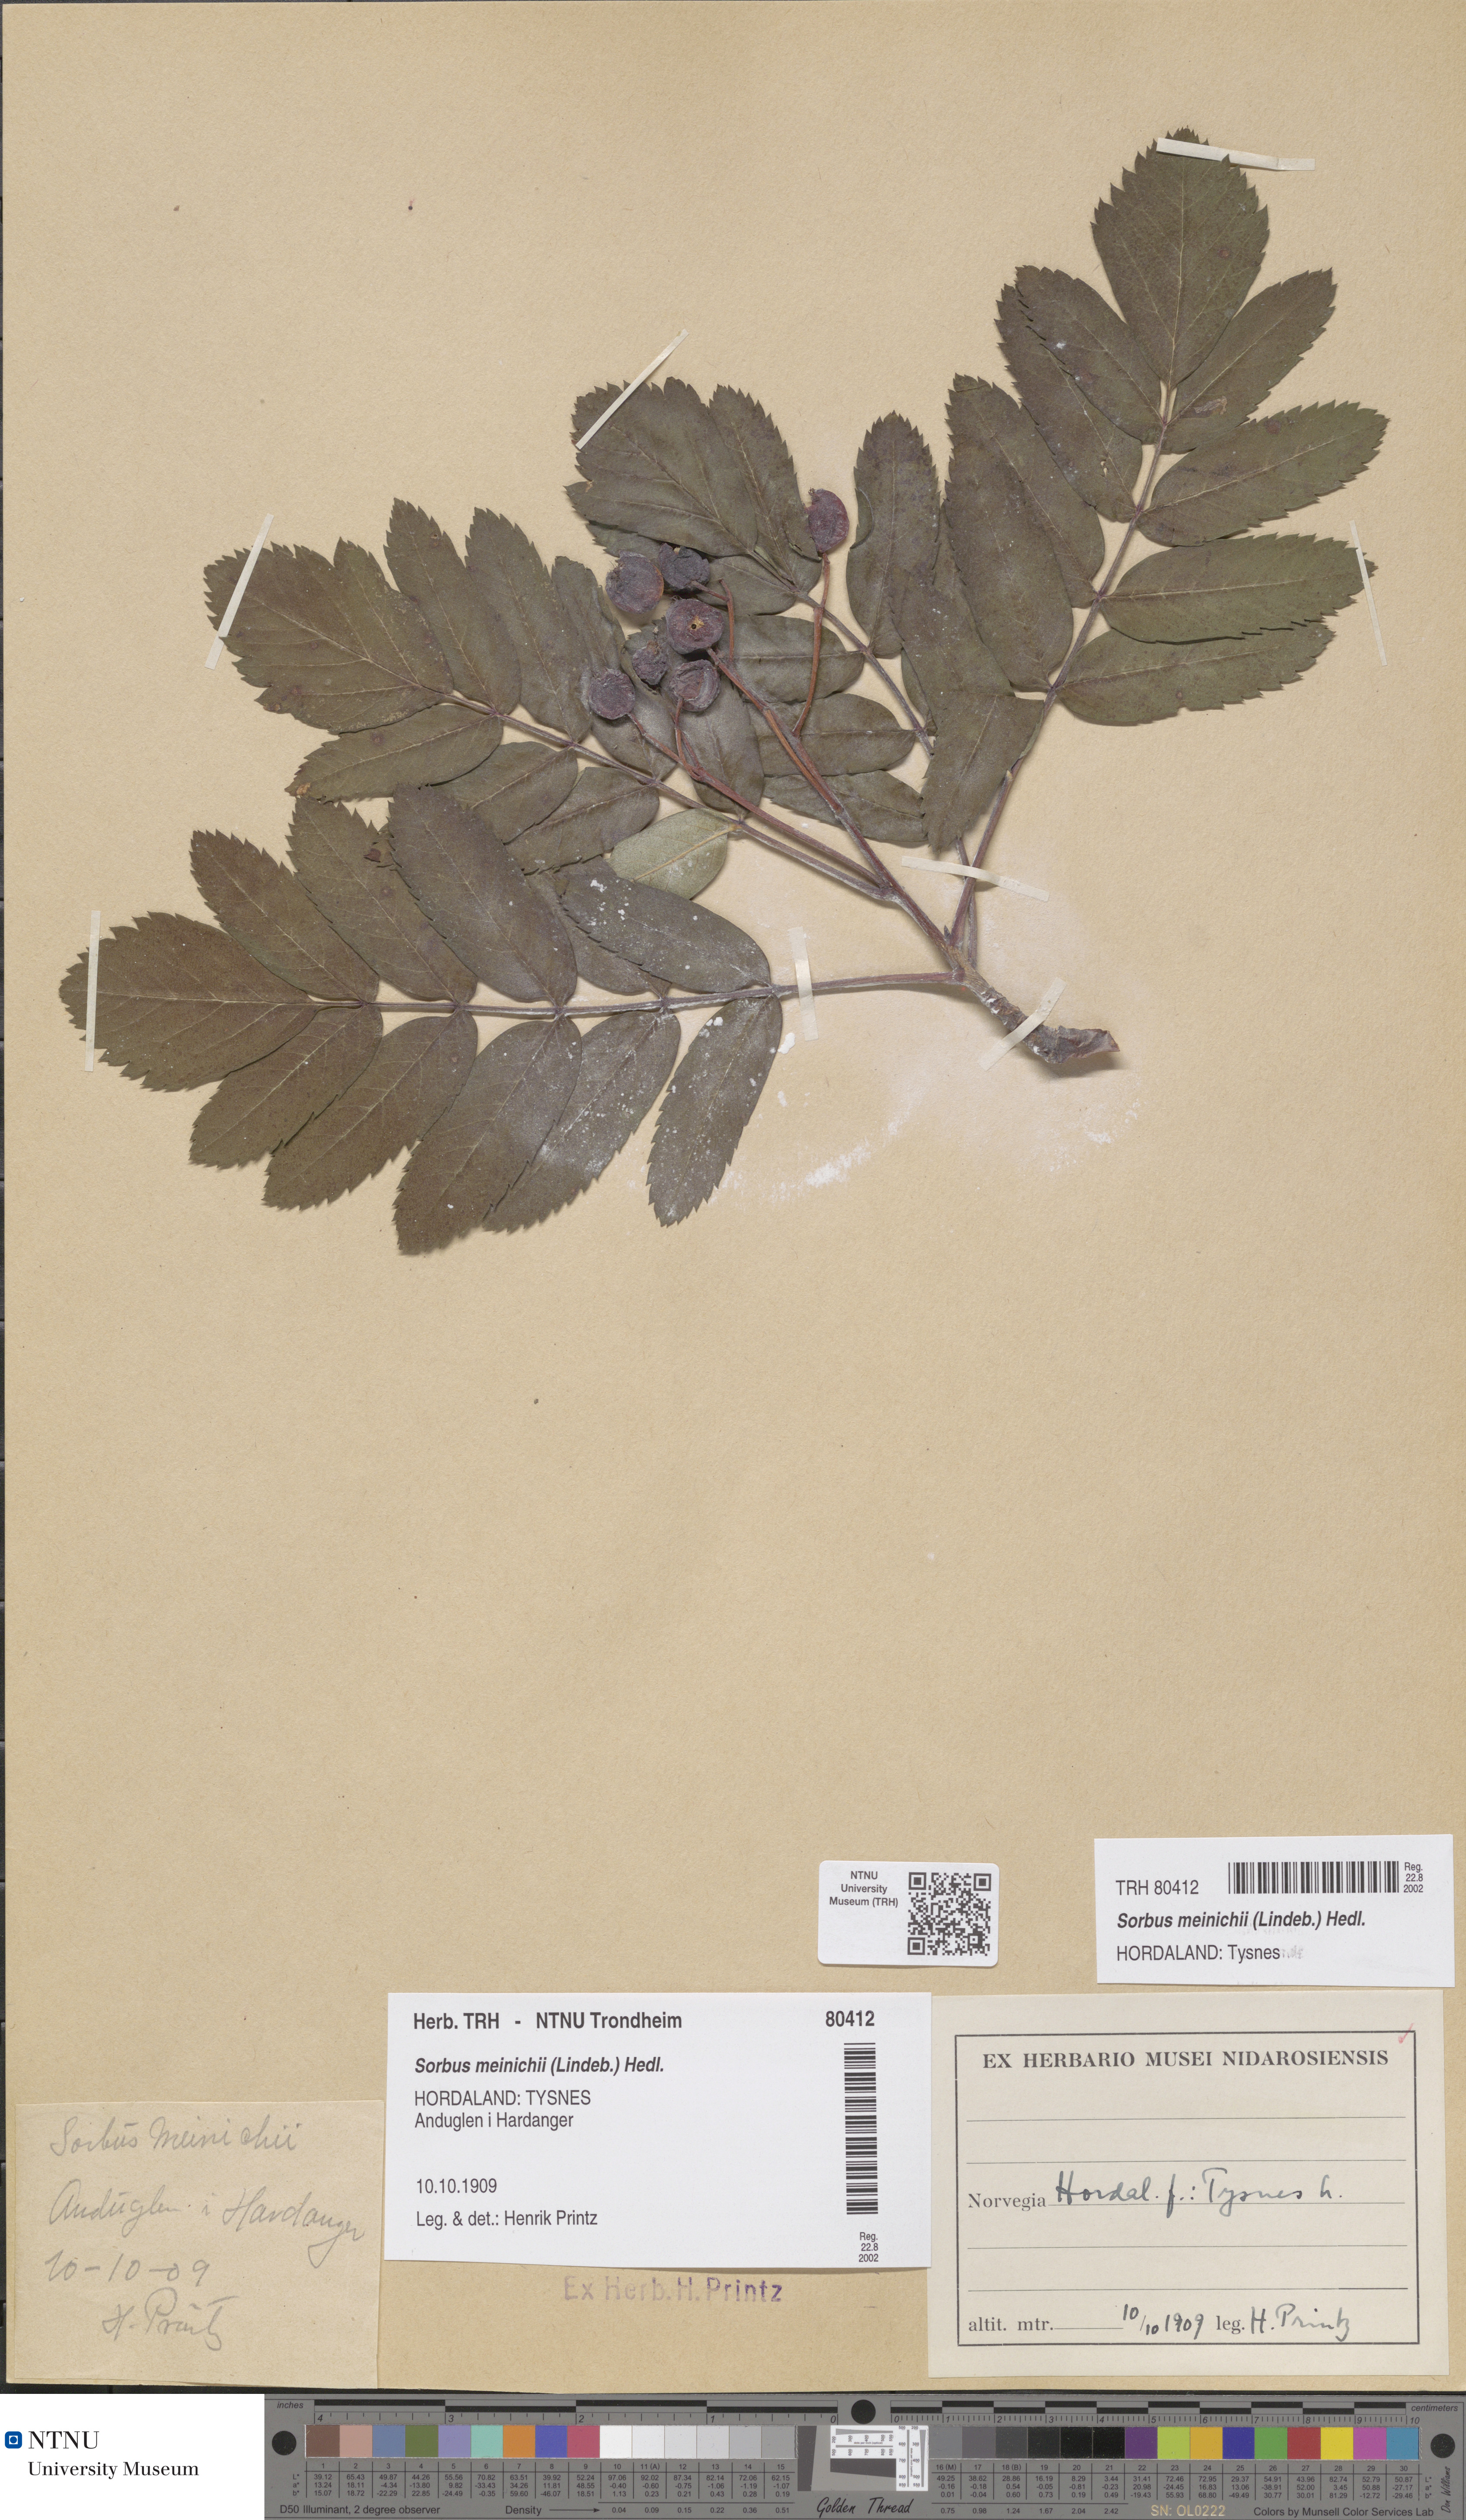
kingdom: Plantae
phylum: Tracheophyta
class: Magnoliopsida
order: Rosales
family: Rosaceae
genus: Hedlundia
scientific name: Hedlundia meinichii
